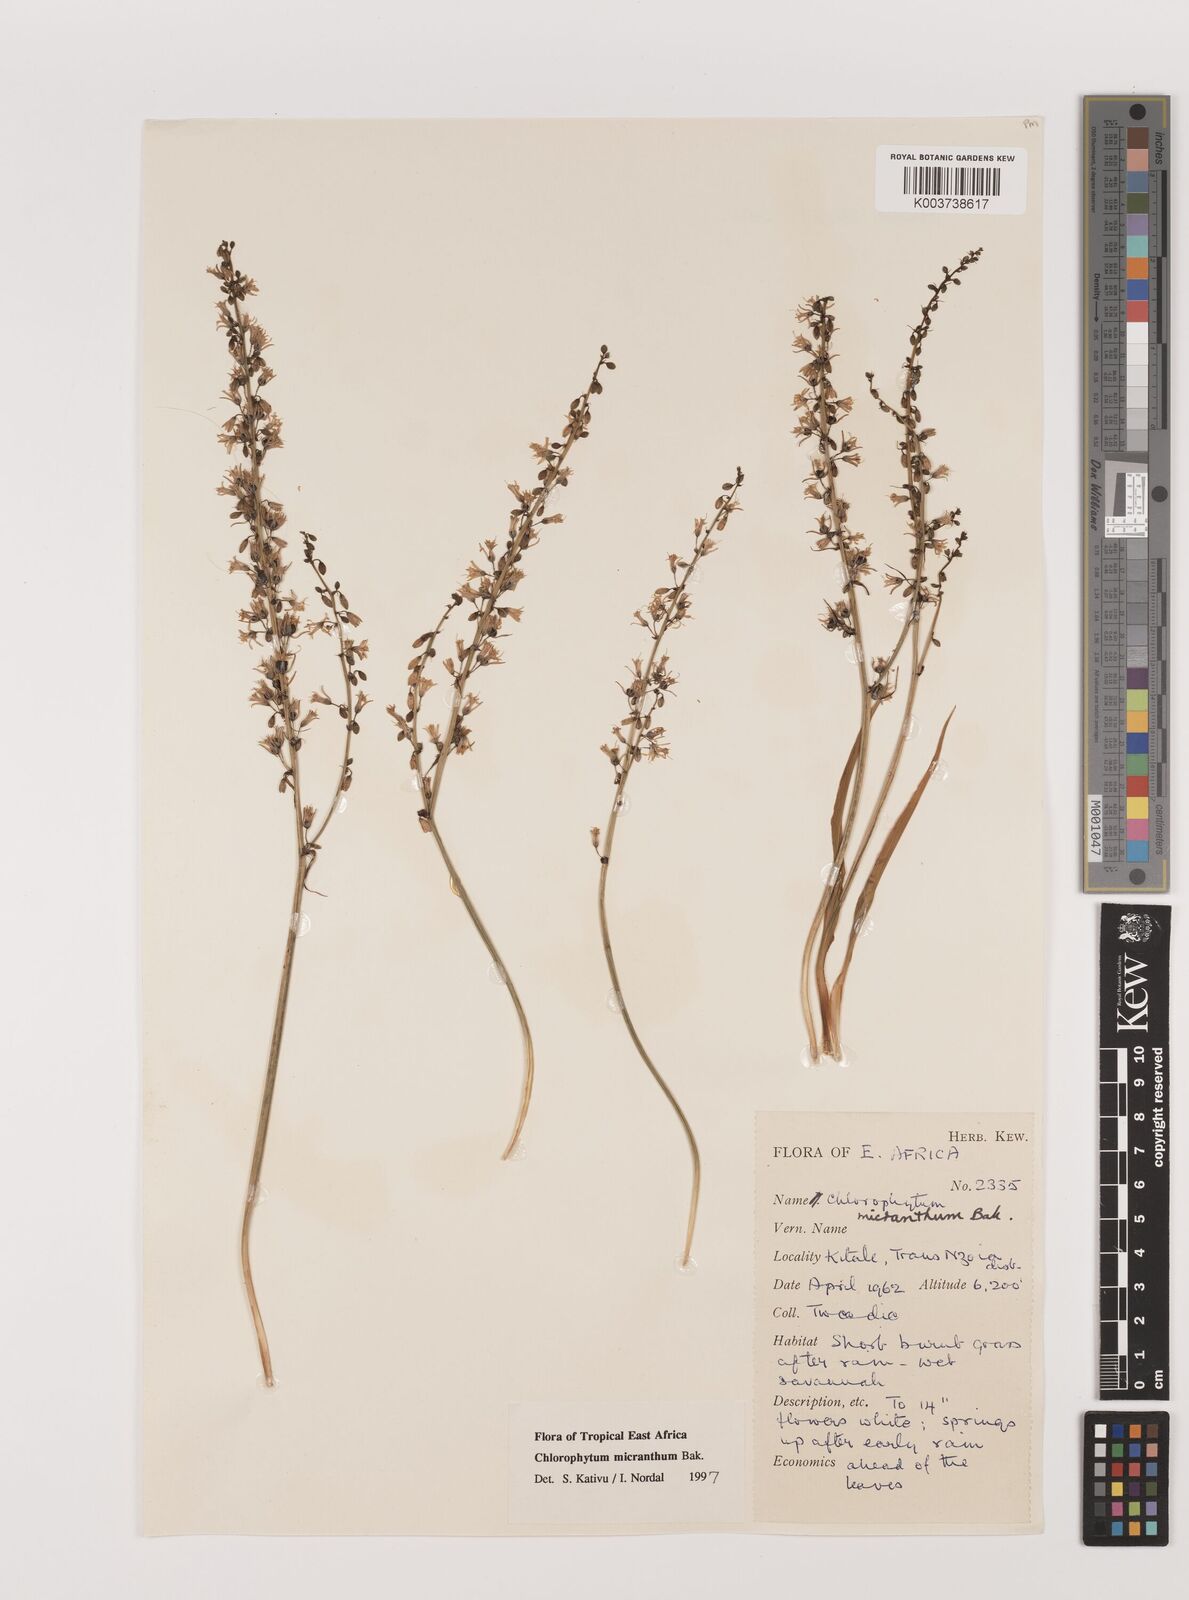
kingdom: Plantae
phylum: Tracheophyta
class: Liliopsida
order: Asparagales
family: Asparagaceae
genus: Chlorophytum
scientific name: Chlorophytum gallabatense
